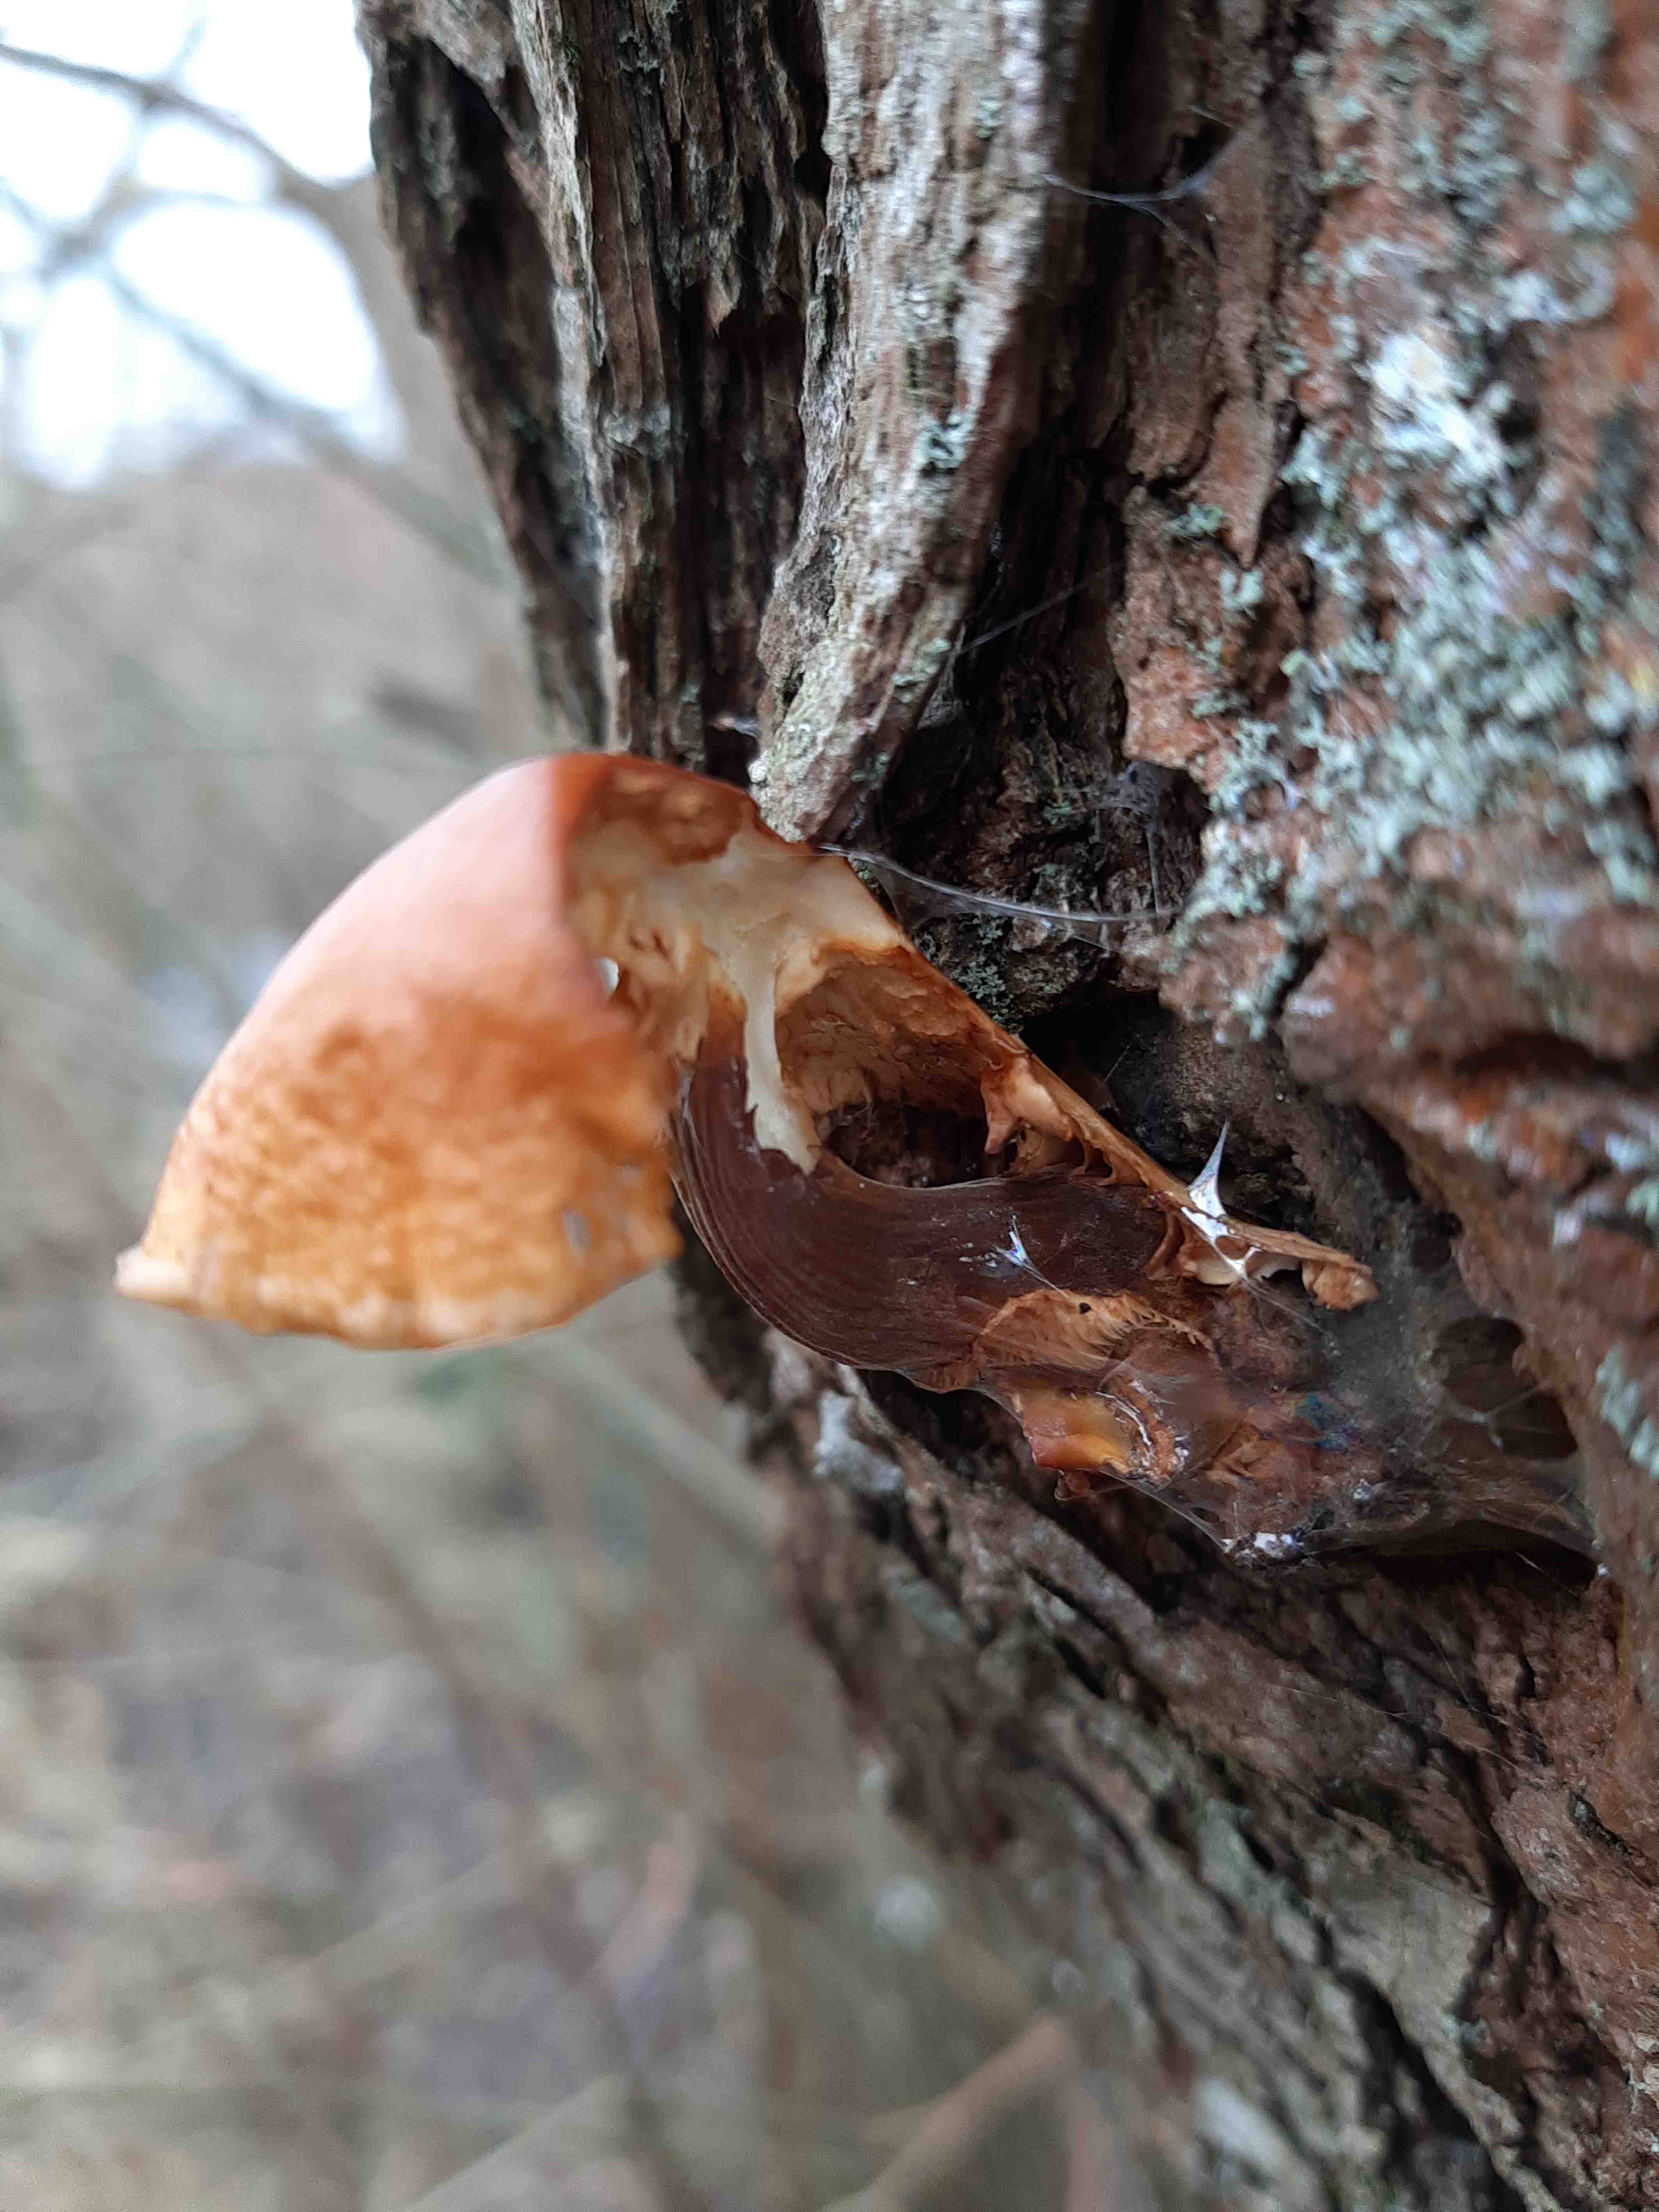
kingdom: Fungi
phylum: Basidiomycota
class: Agaricomycetes
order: Agaricales
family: Physalacriaceae
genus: Flammulina
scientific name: Flammulina
